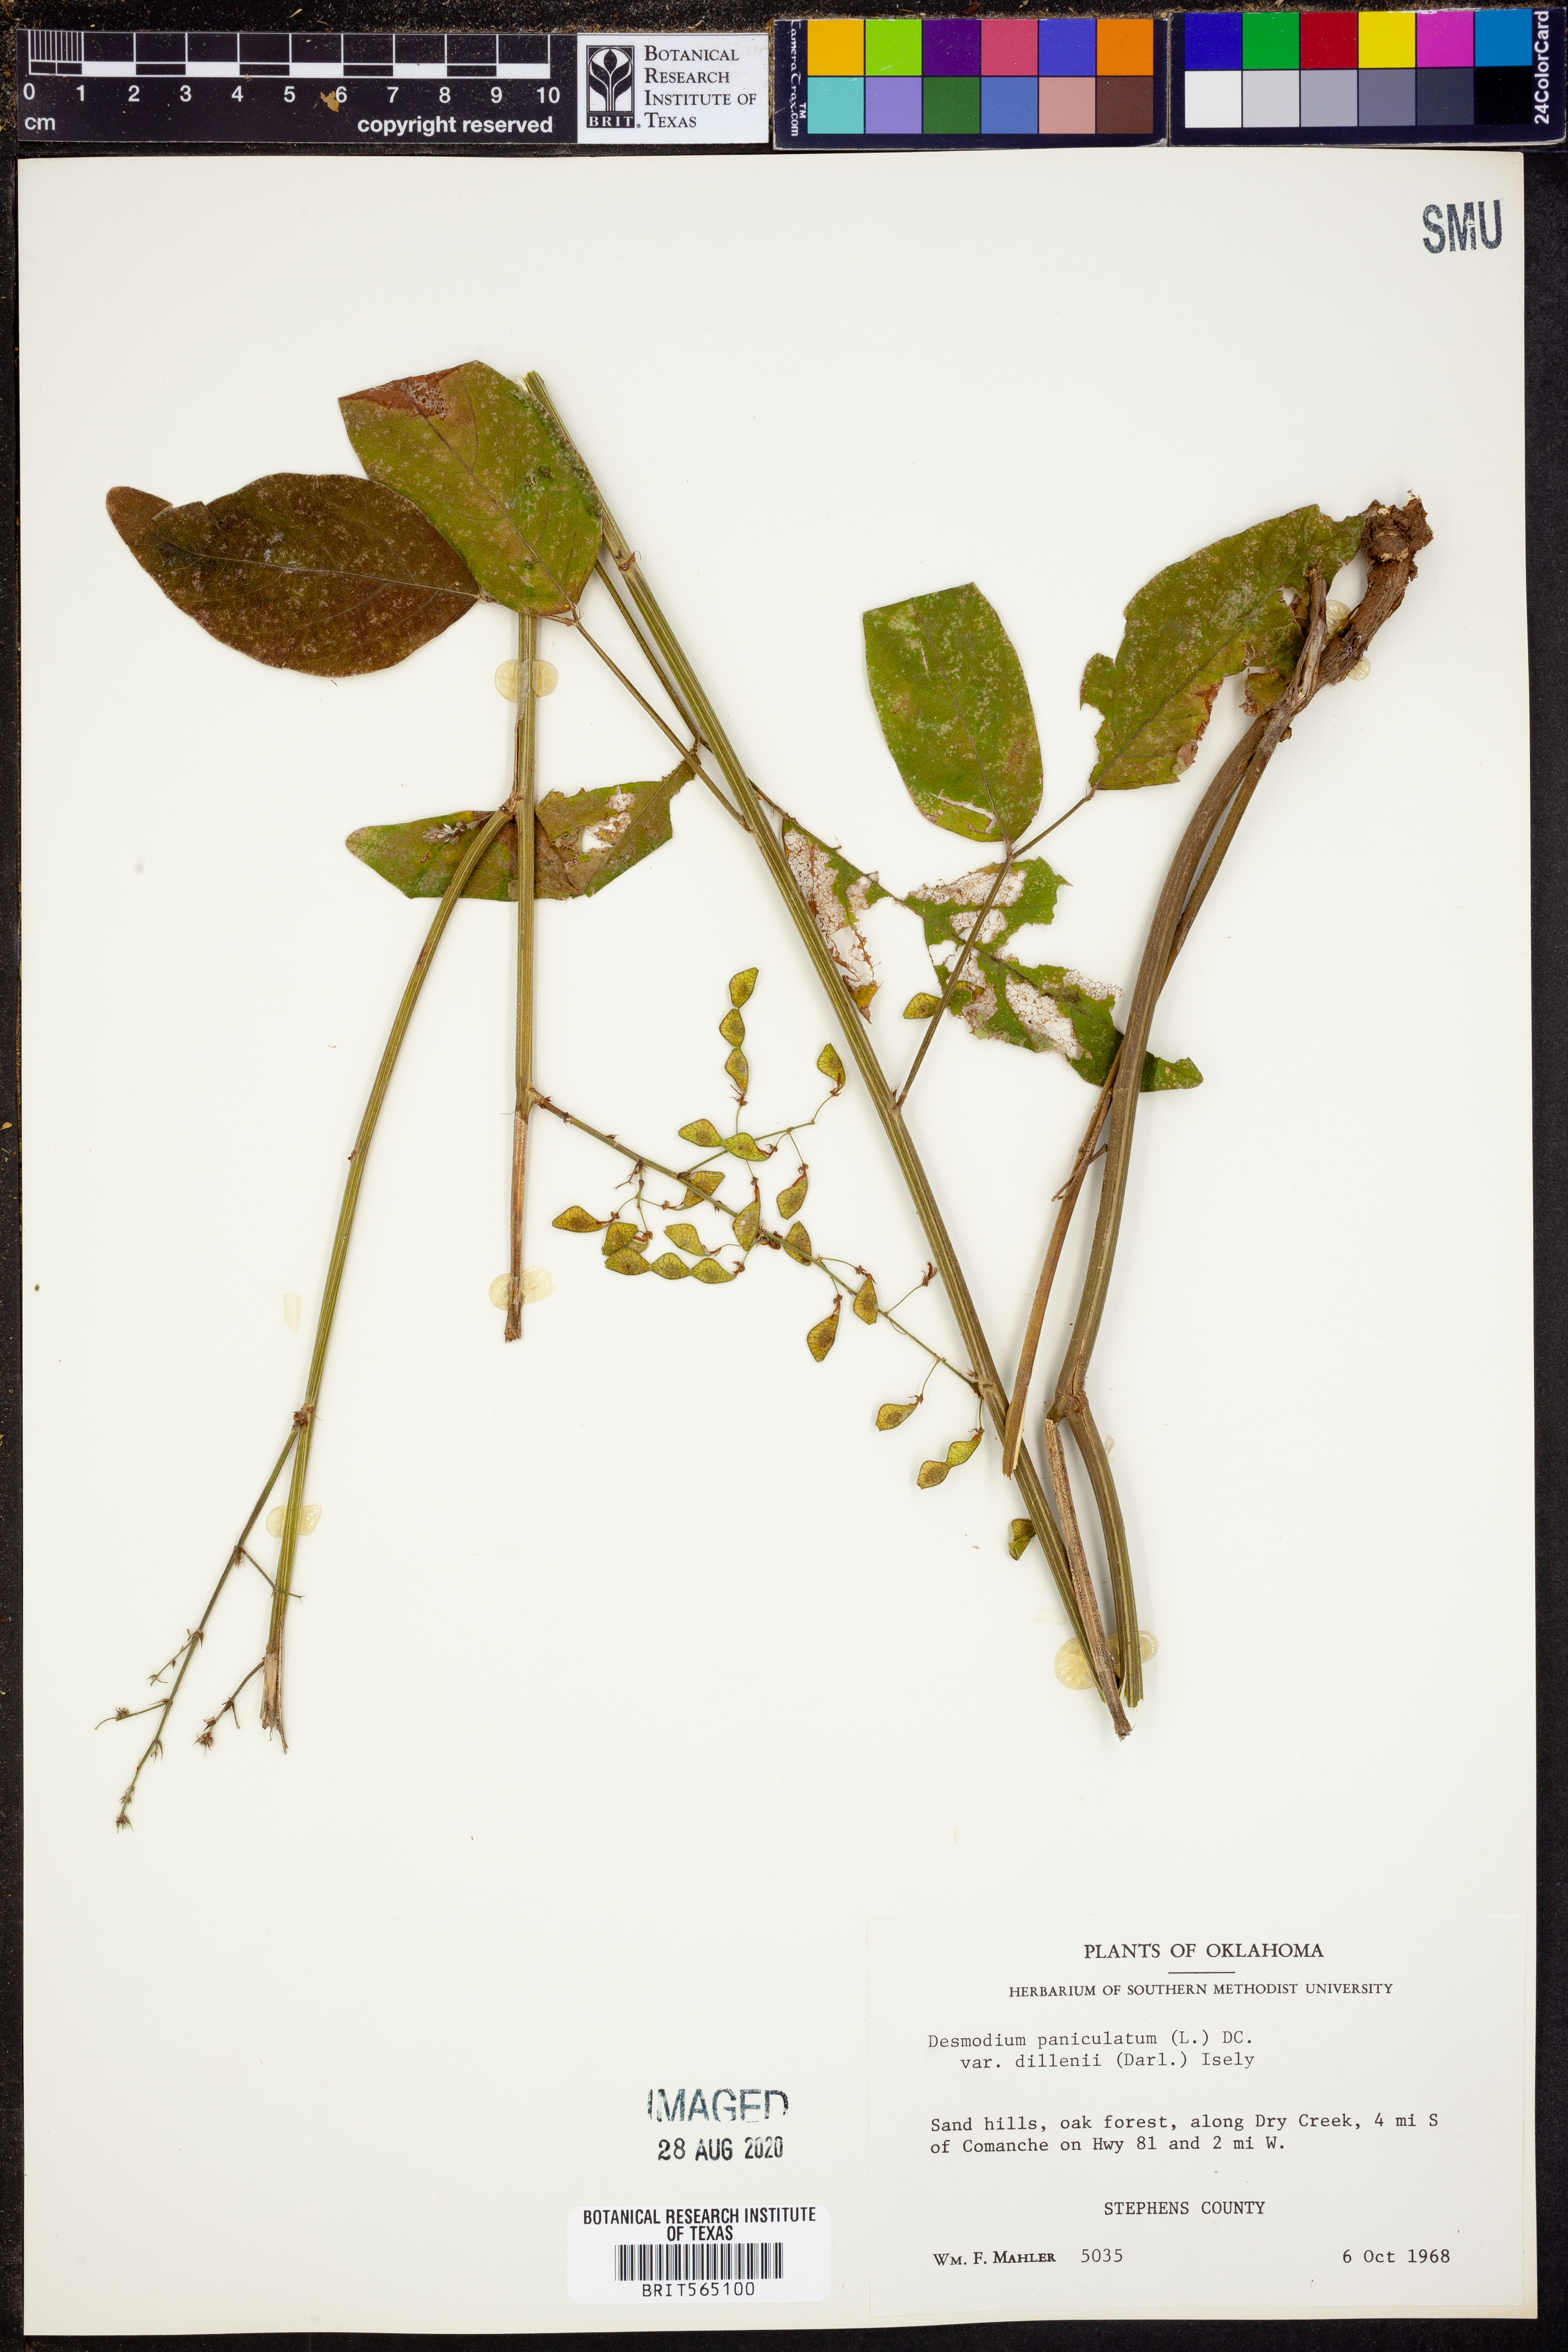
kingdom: Plantae
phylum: Tracheophyta
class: Magnoliopsida
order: Fabales
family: Fabaceae
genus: Desmodium
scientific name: Desmodium perplexum
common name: Perplexed tick trefoil
